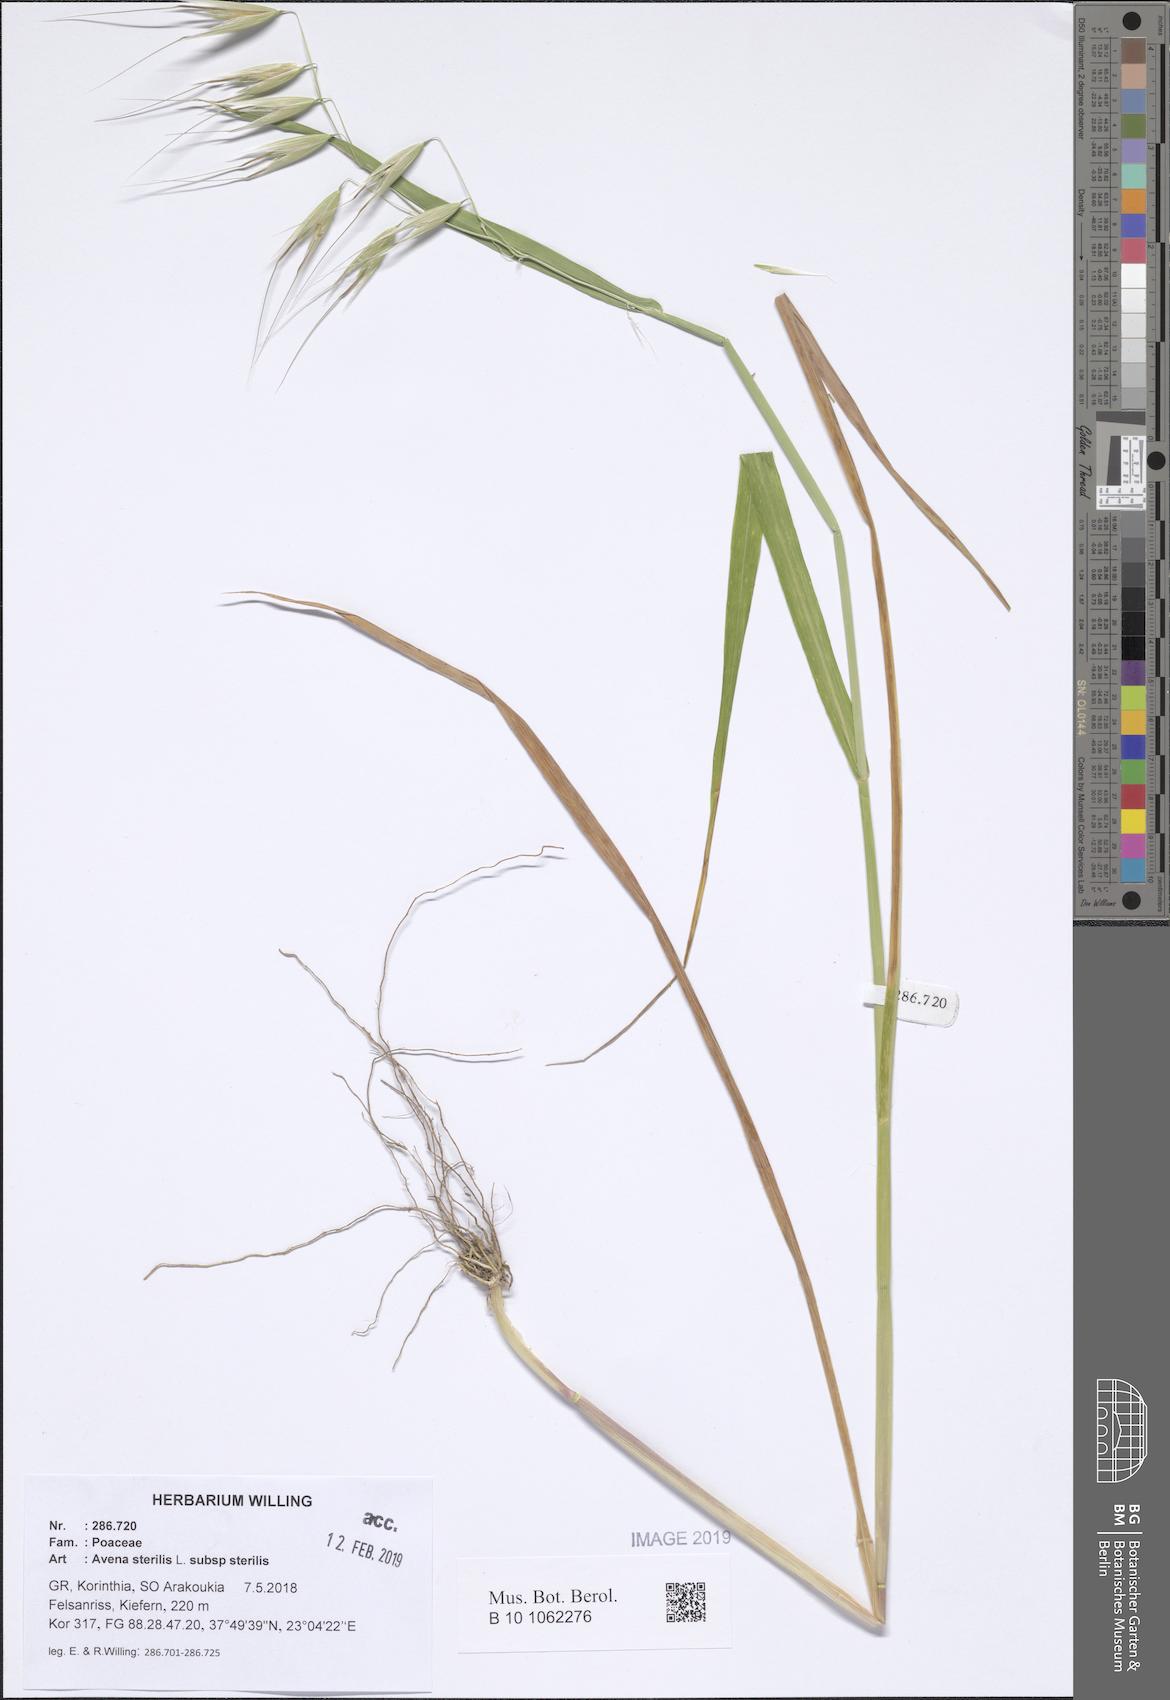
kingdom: Plantae
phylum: Tracheophyta
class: Liliopsida
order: Poales
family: Poaceae
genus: Avena
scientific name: Avena sterilis
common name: Animated oat
